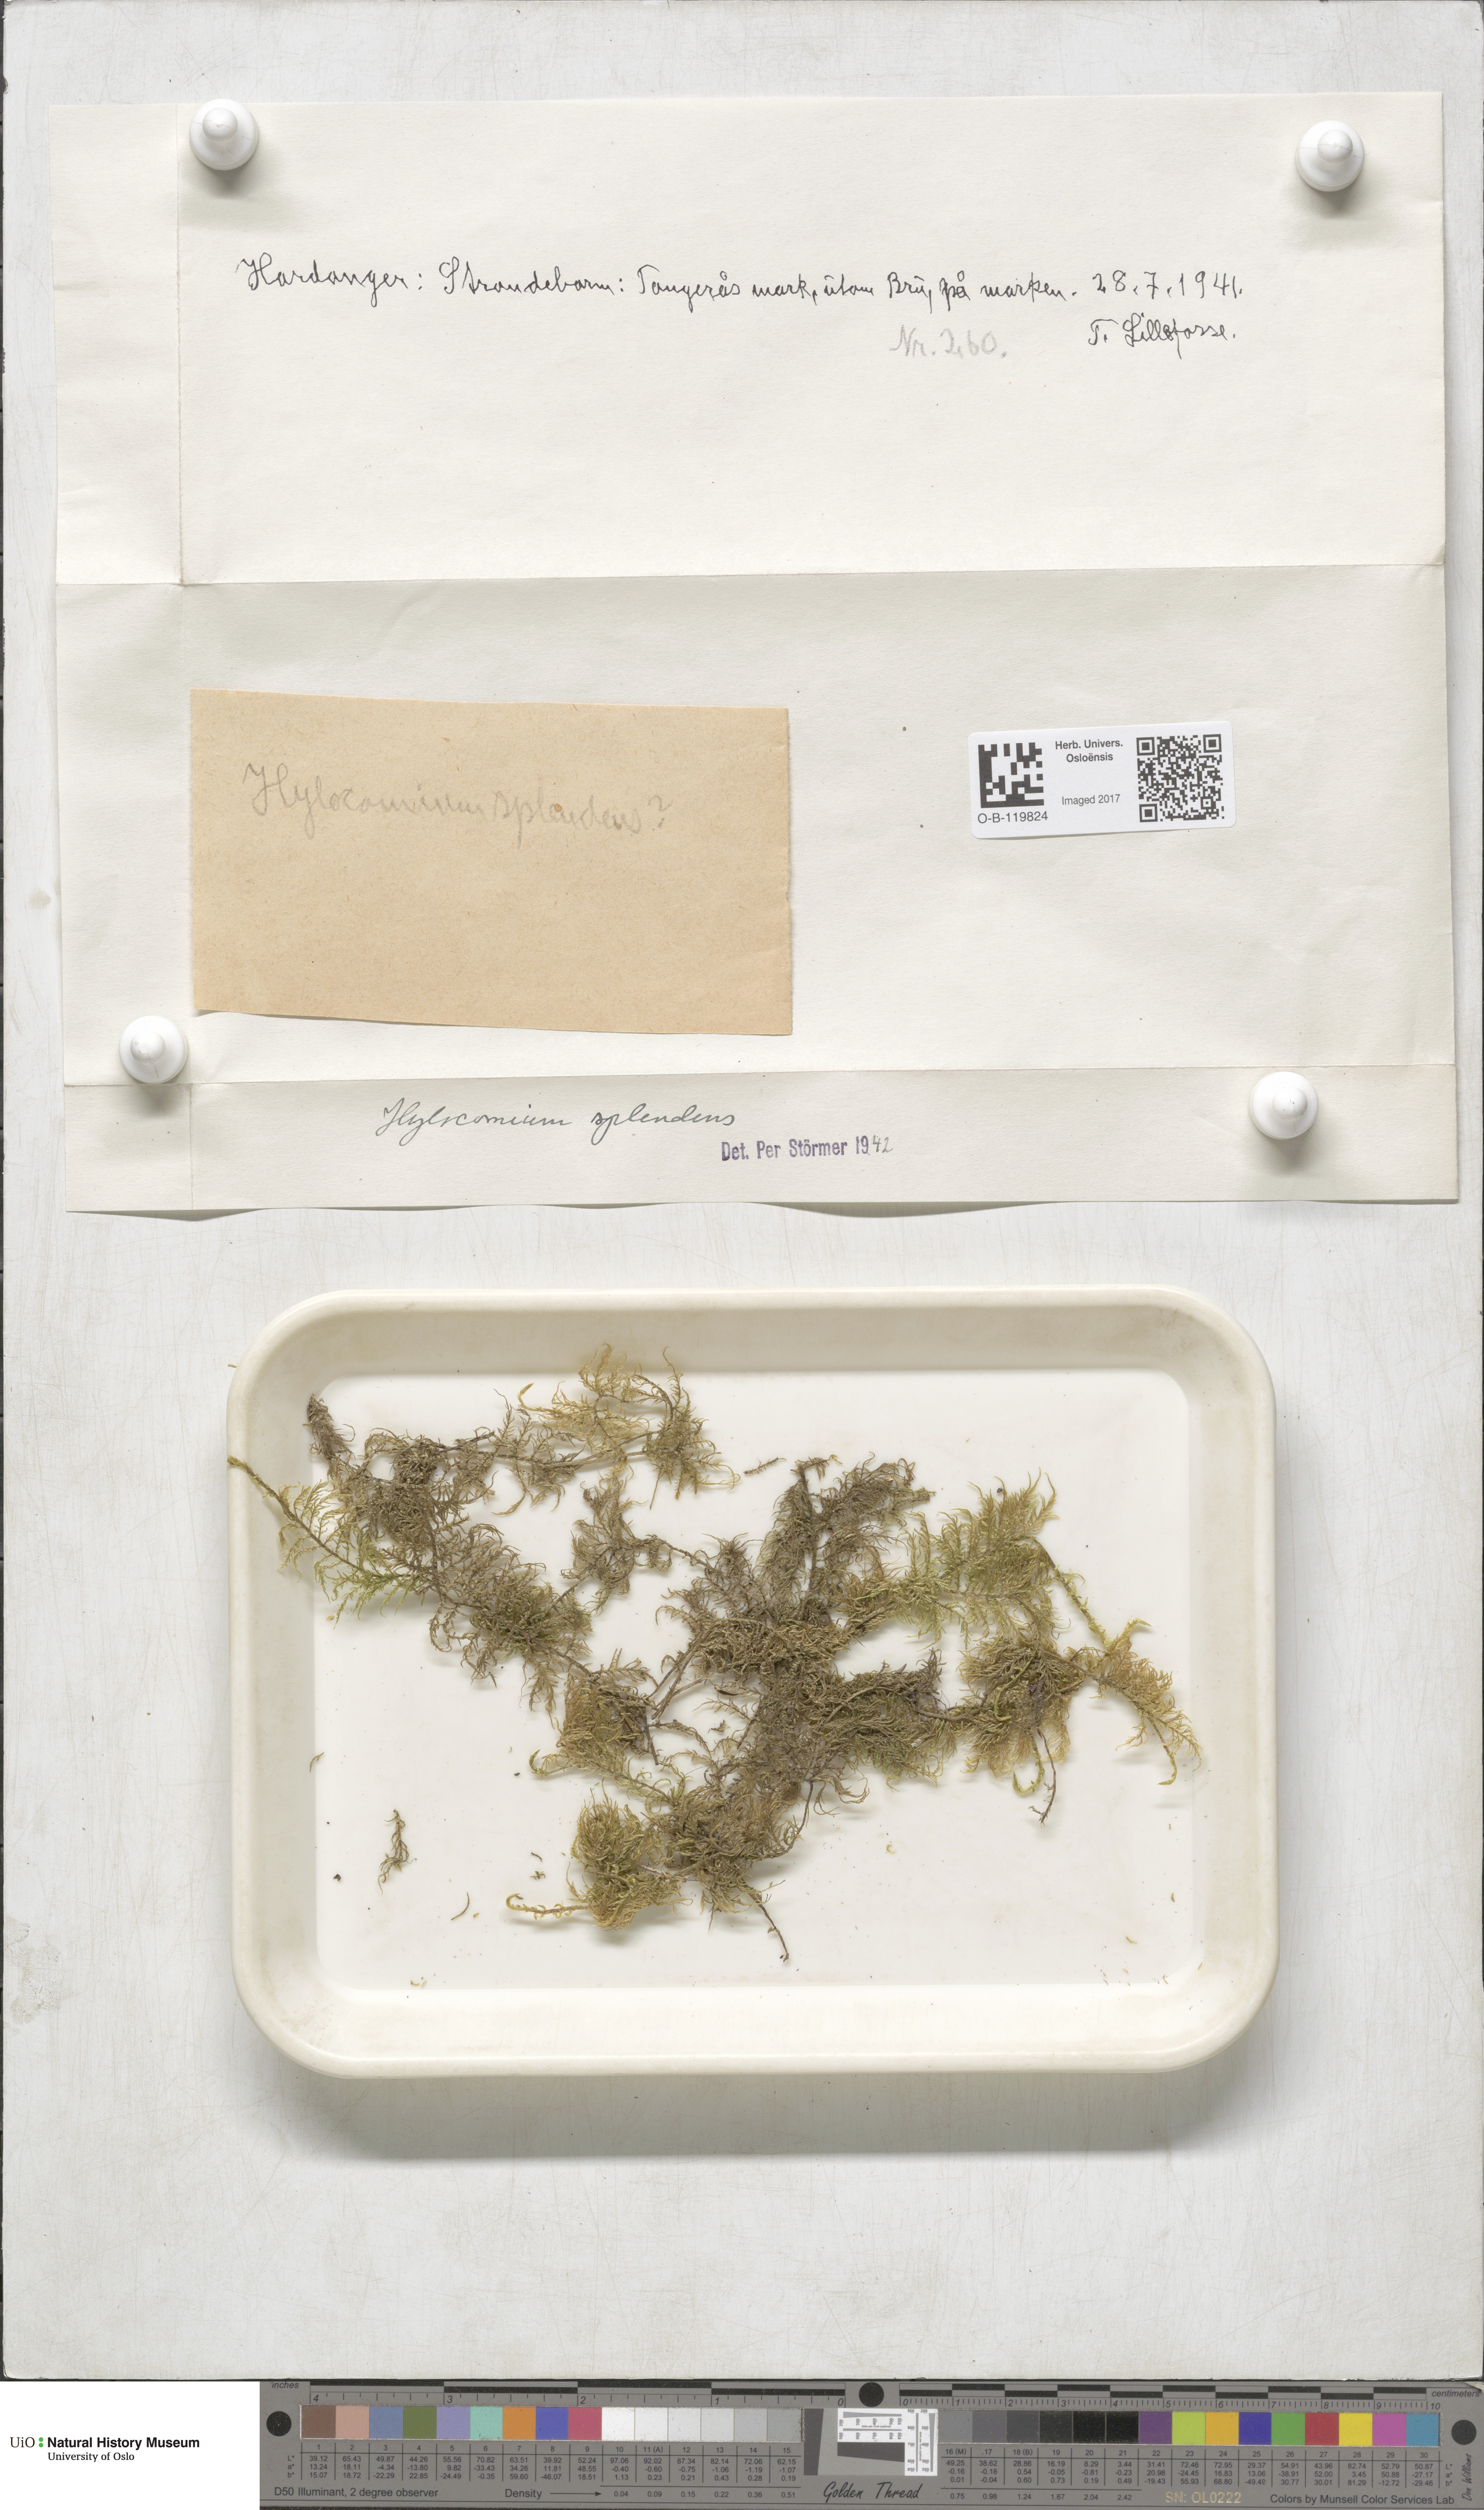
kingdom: Plantae
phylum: Bryophyta
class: Bryopsida
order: Hypnales
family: Hylocomiaceae
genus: Hylocomium
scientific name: Hylocomium splendens
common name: Stairstep moss
